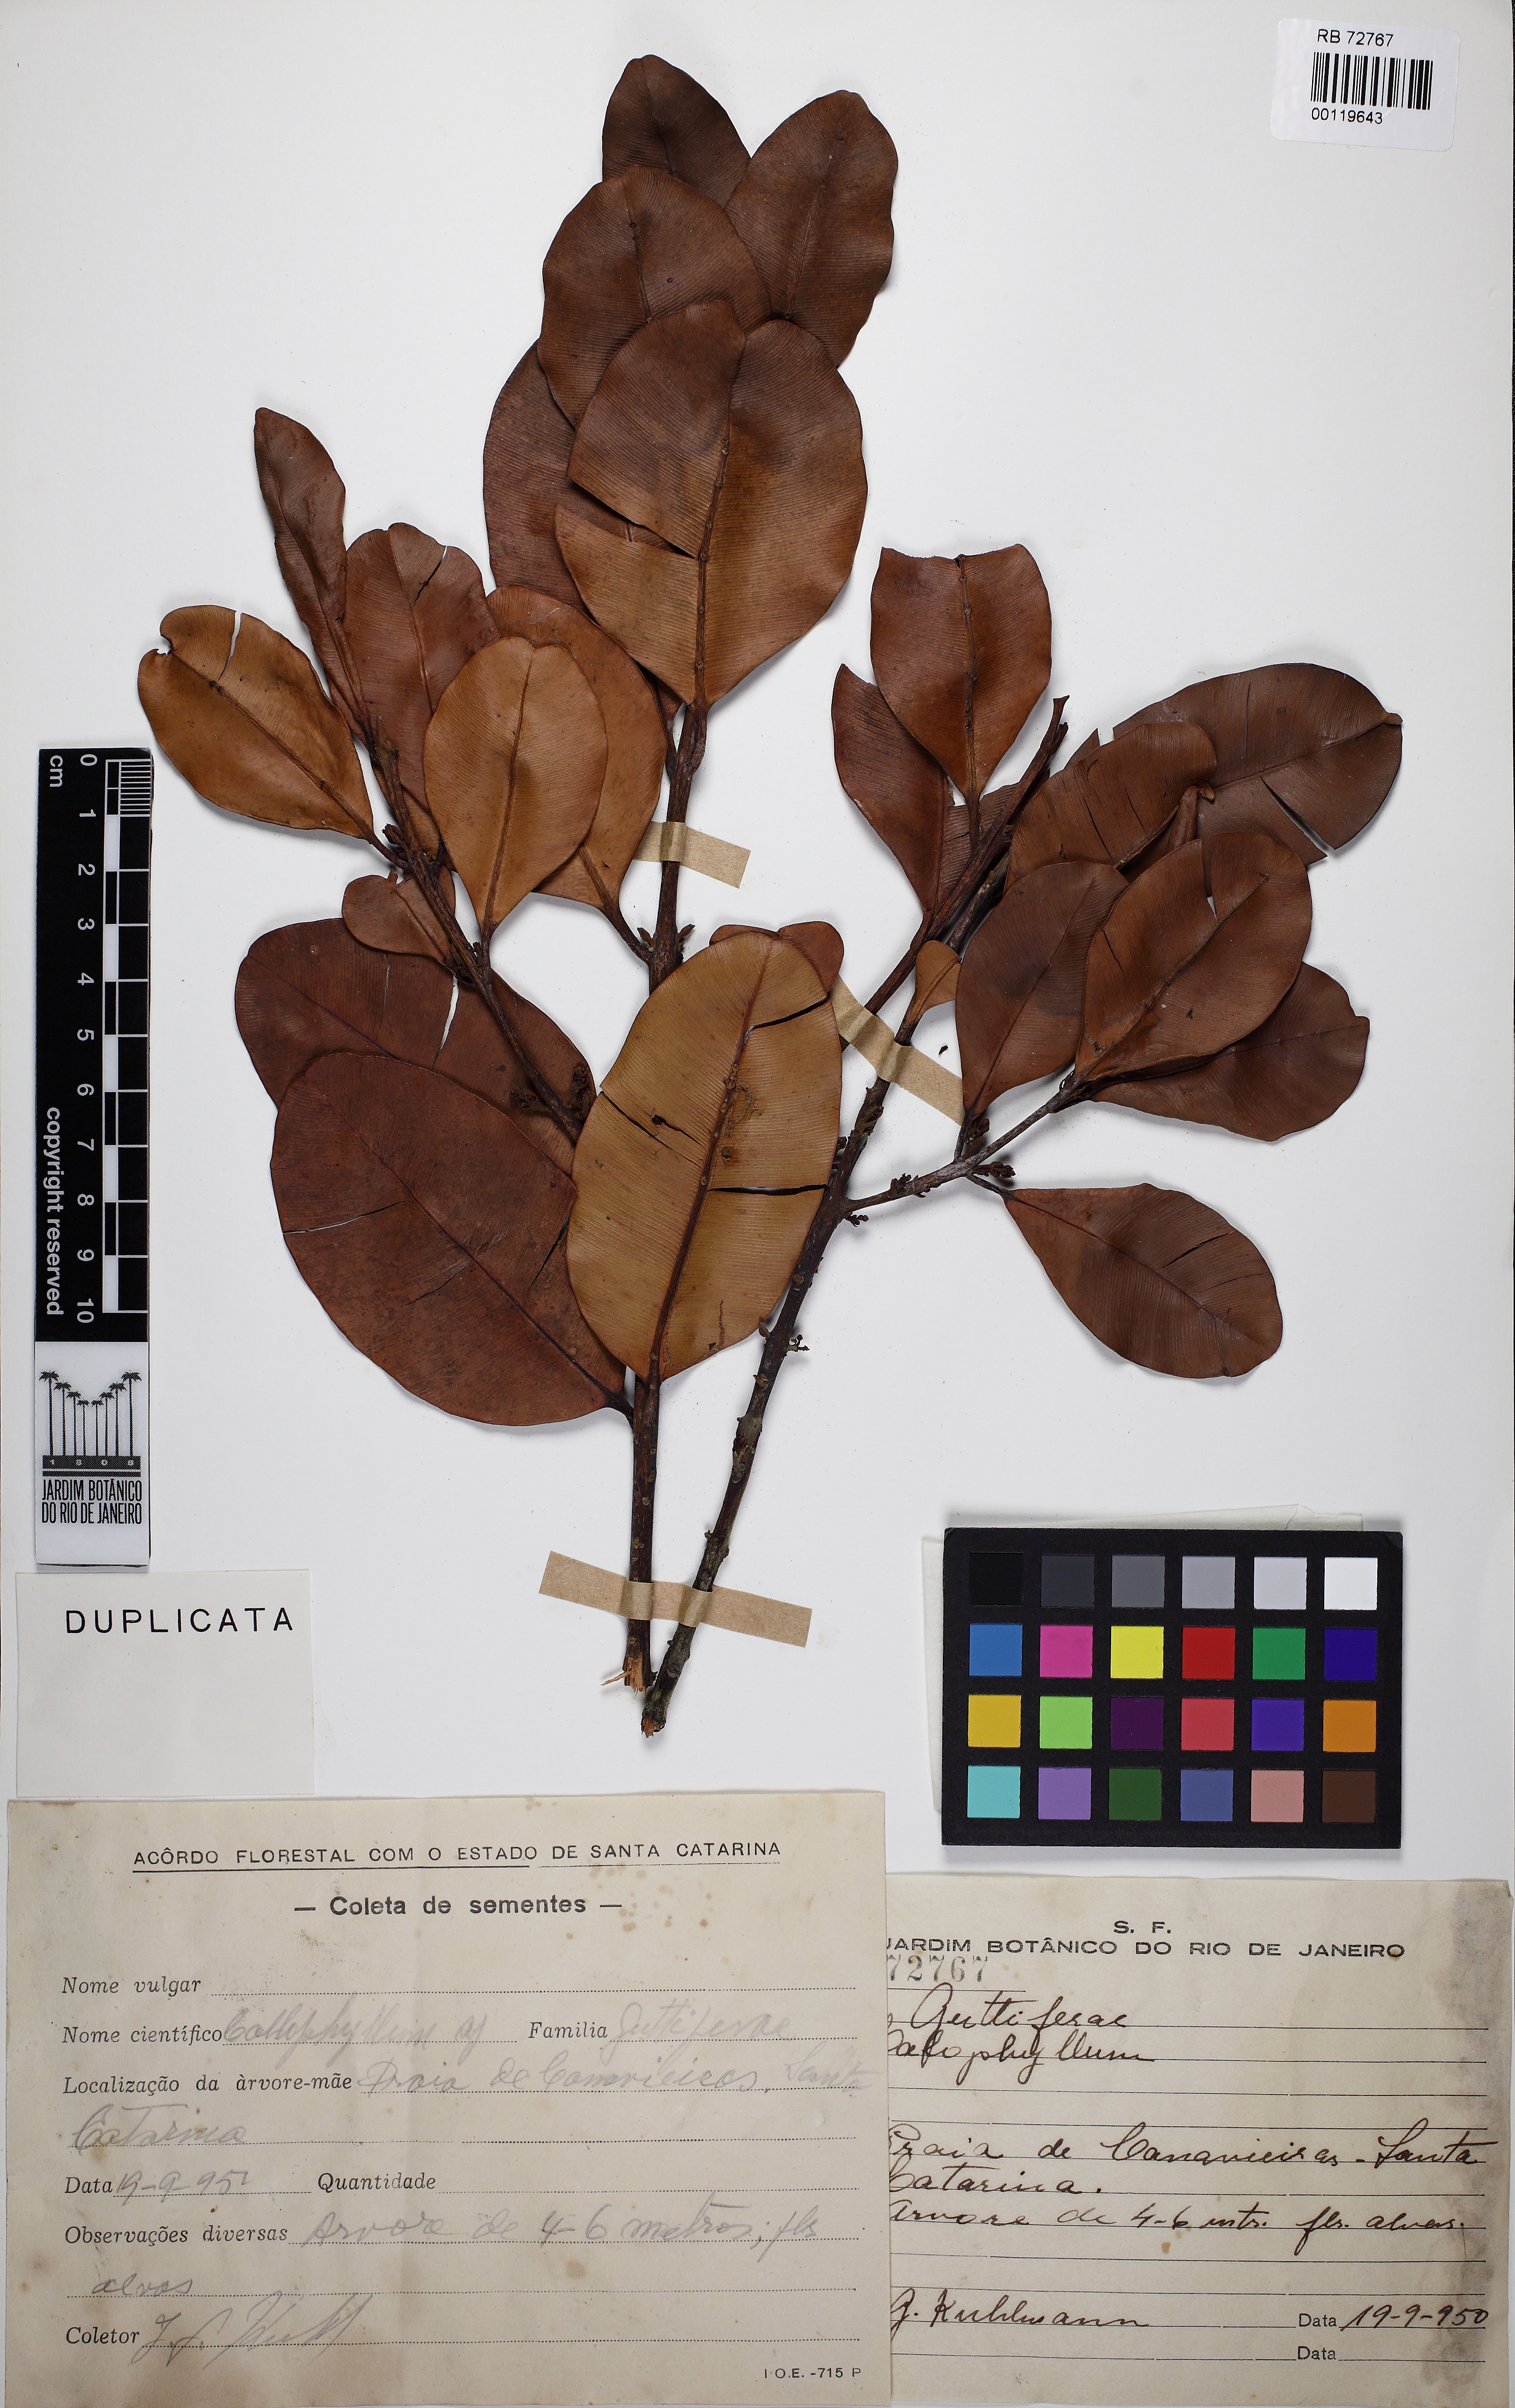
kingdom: Plantae
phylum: Tracheophyta
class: Magnoliopsida
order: Malpighiales
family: Calophyllaceae
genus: Calophyllum
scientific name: Calophyllum brasiliense
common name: Santa maria
